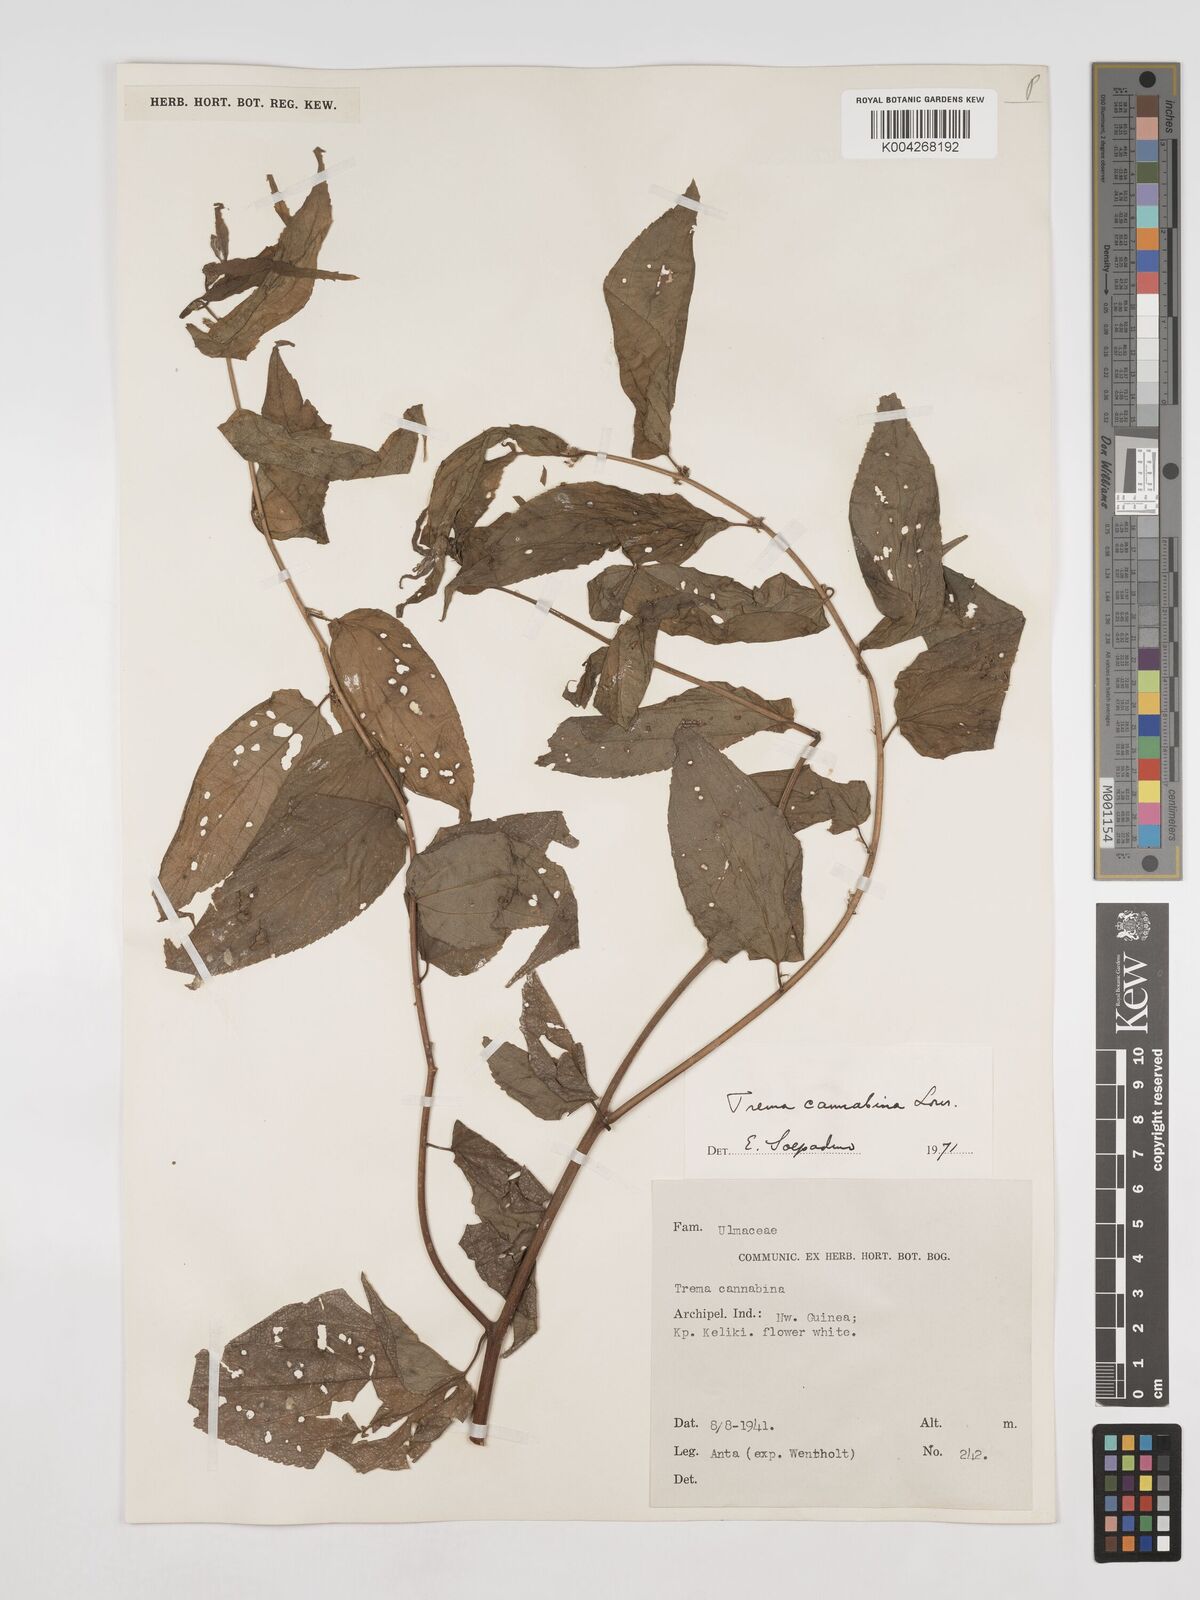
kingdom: Plantae
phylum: Tracheophyta
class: Magnoliopsida
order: Rosales
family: Cannabaceae
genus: Trema
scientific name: Trema
